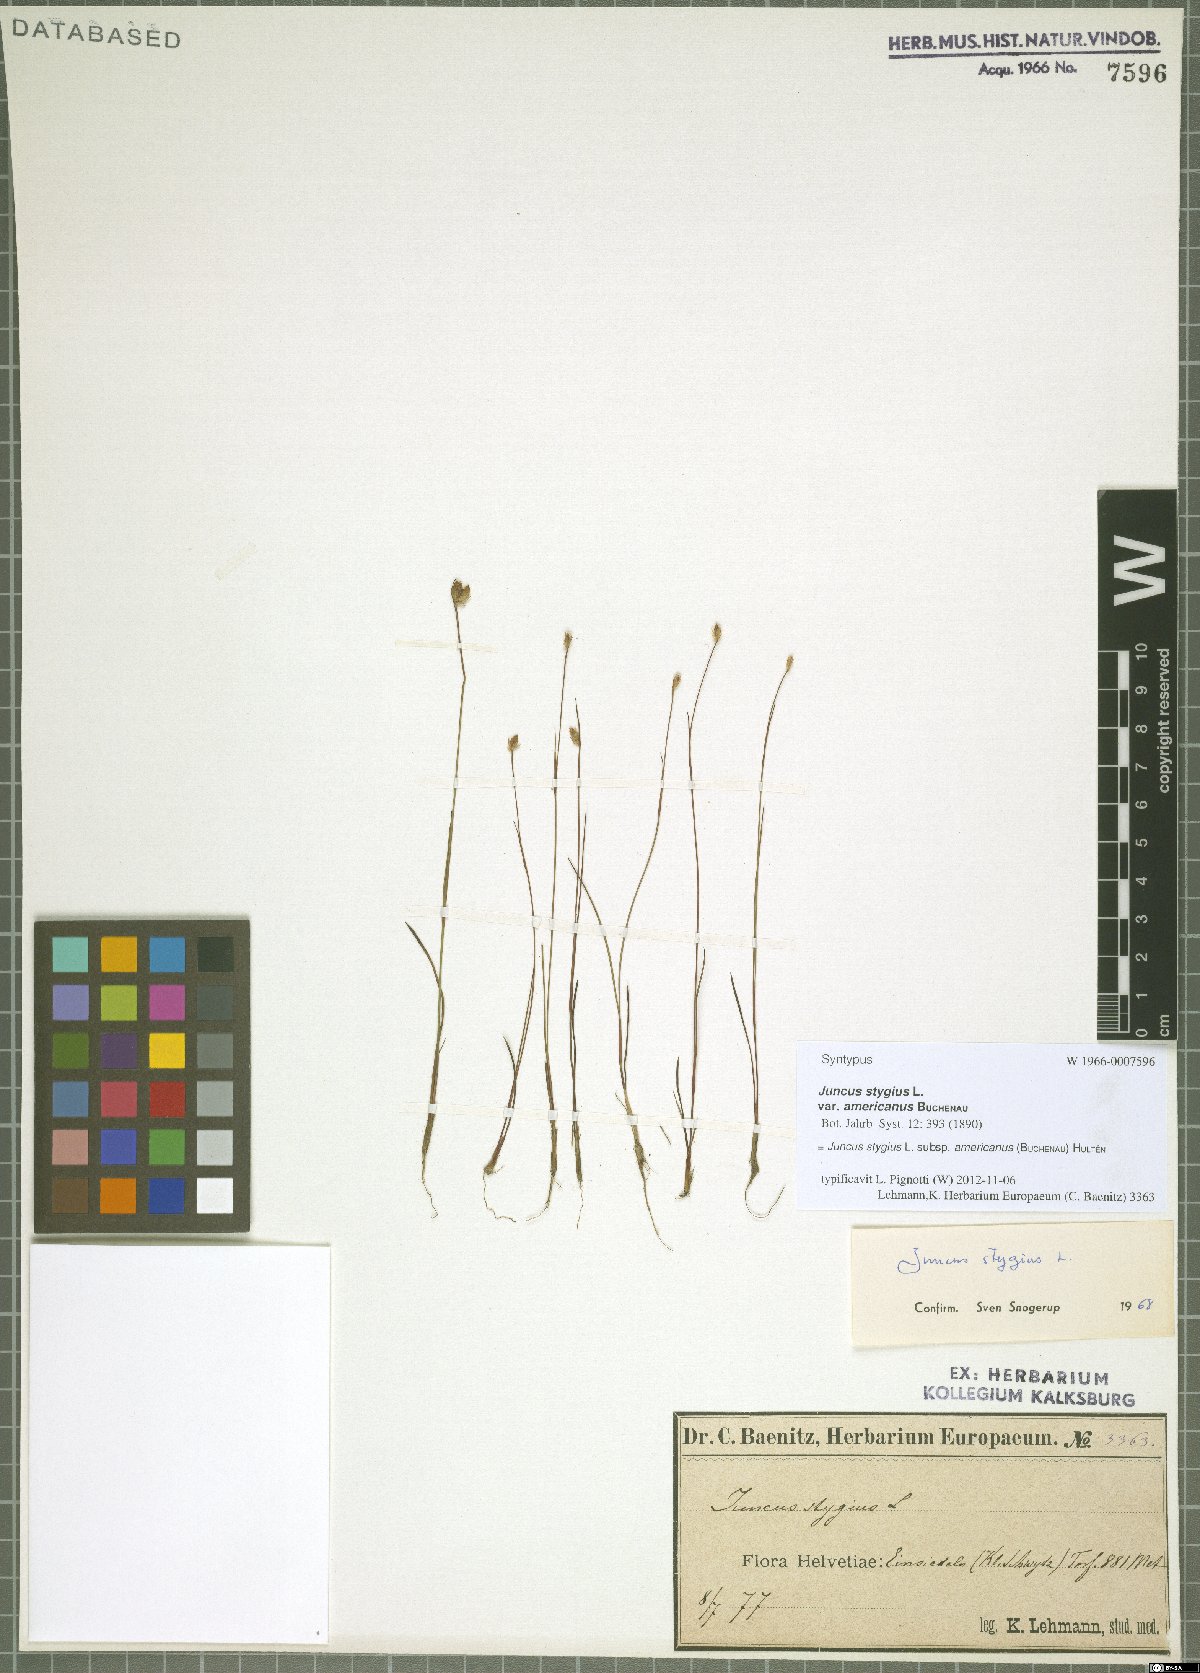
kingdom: Plantae
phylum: Tracheophyta
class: Liliopsida
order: Poales
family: Juncaceae
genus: Juncus
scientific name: Juncus stygius
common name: Bog rush
